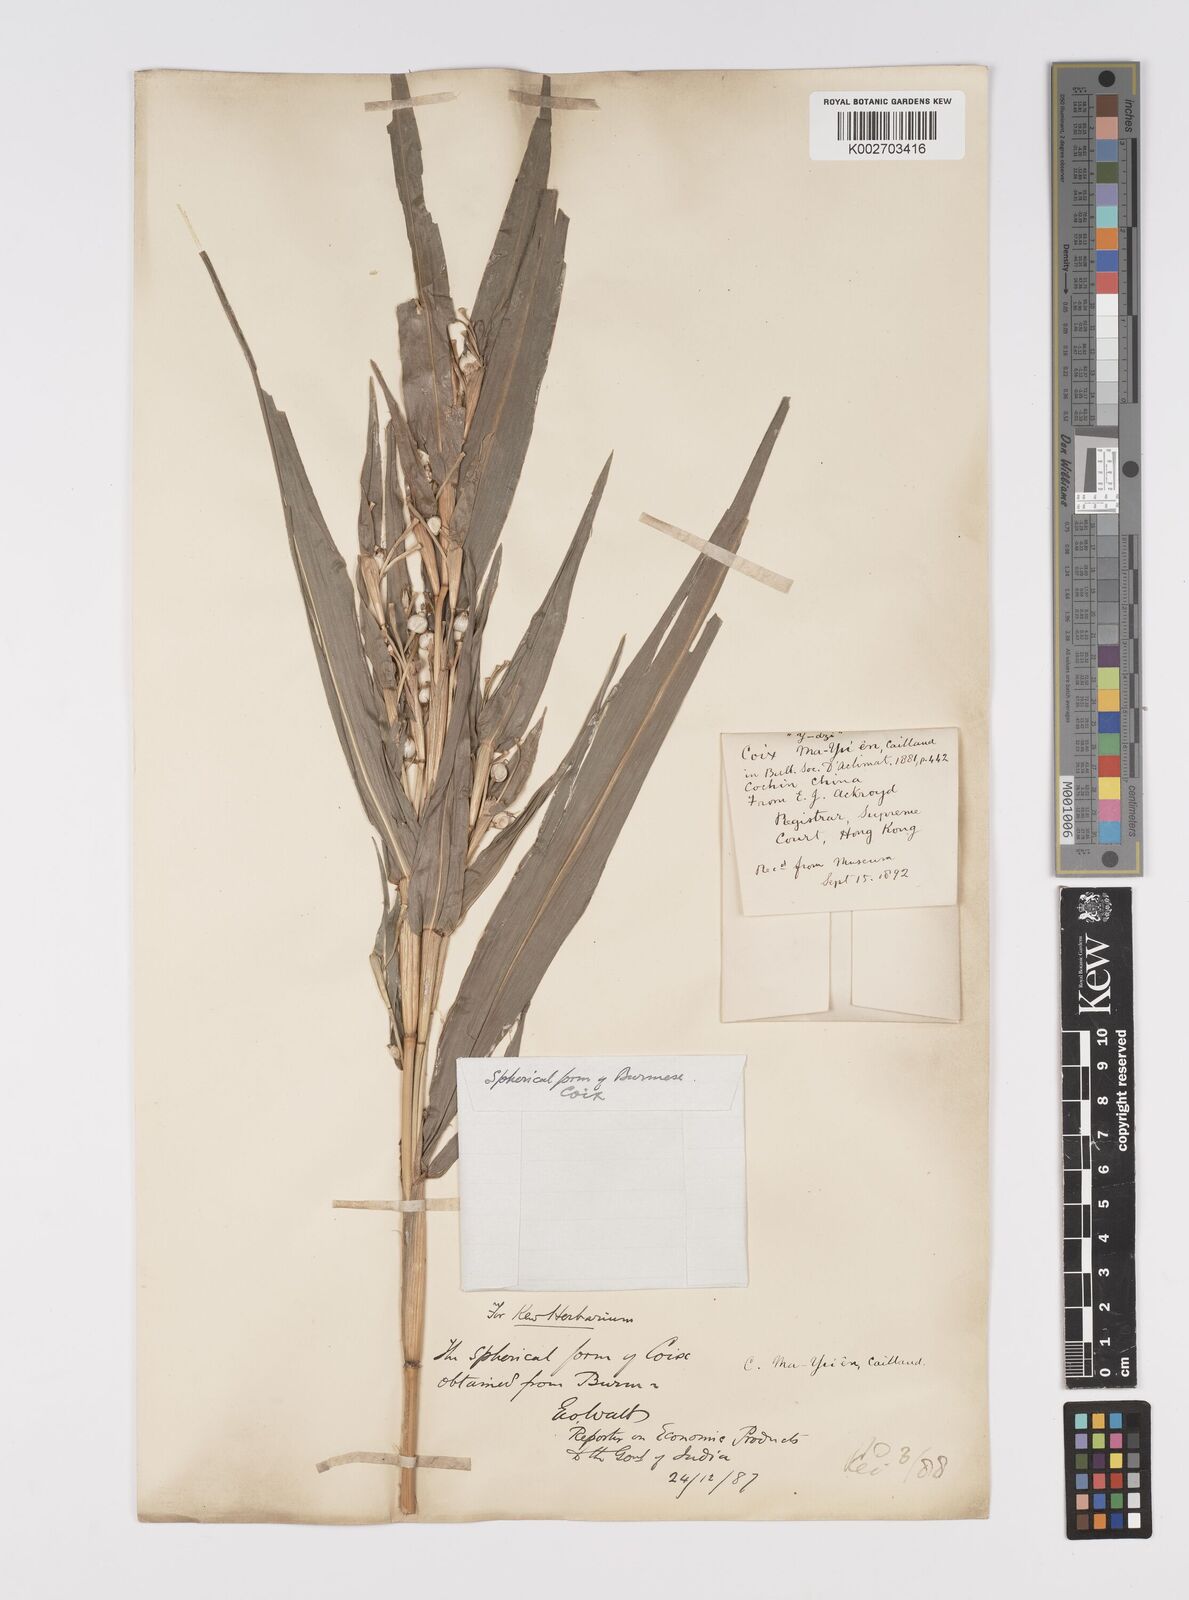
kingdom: Plantae
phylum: Tracheophyta
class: Liliopsida
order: Poales
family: Poaceae
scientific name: Poaceae
